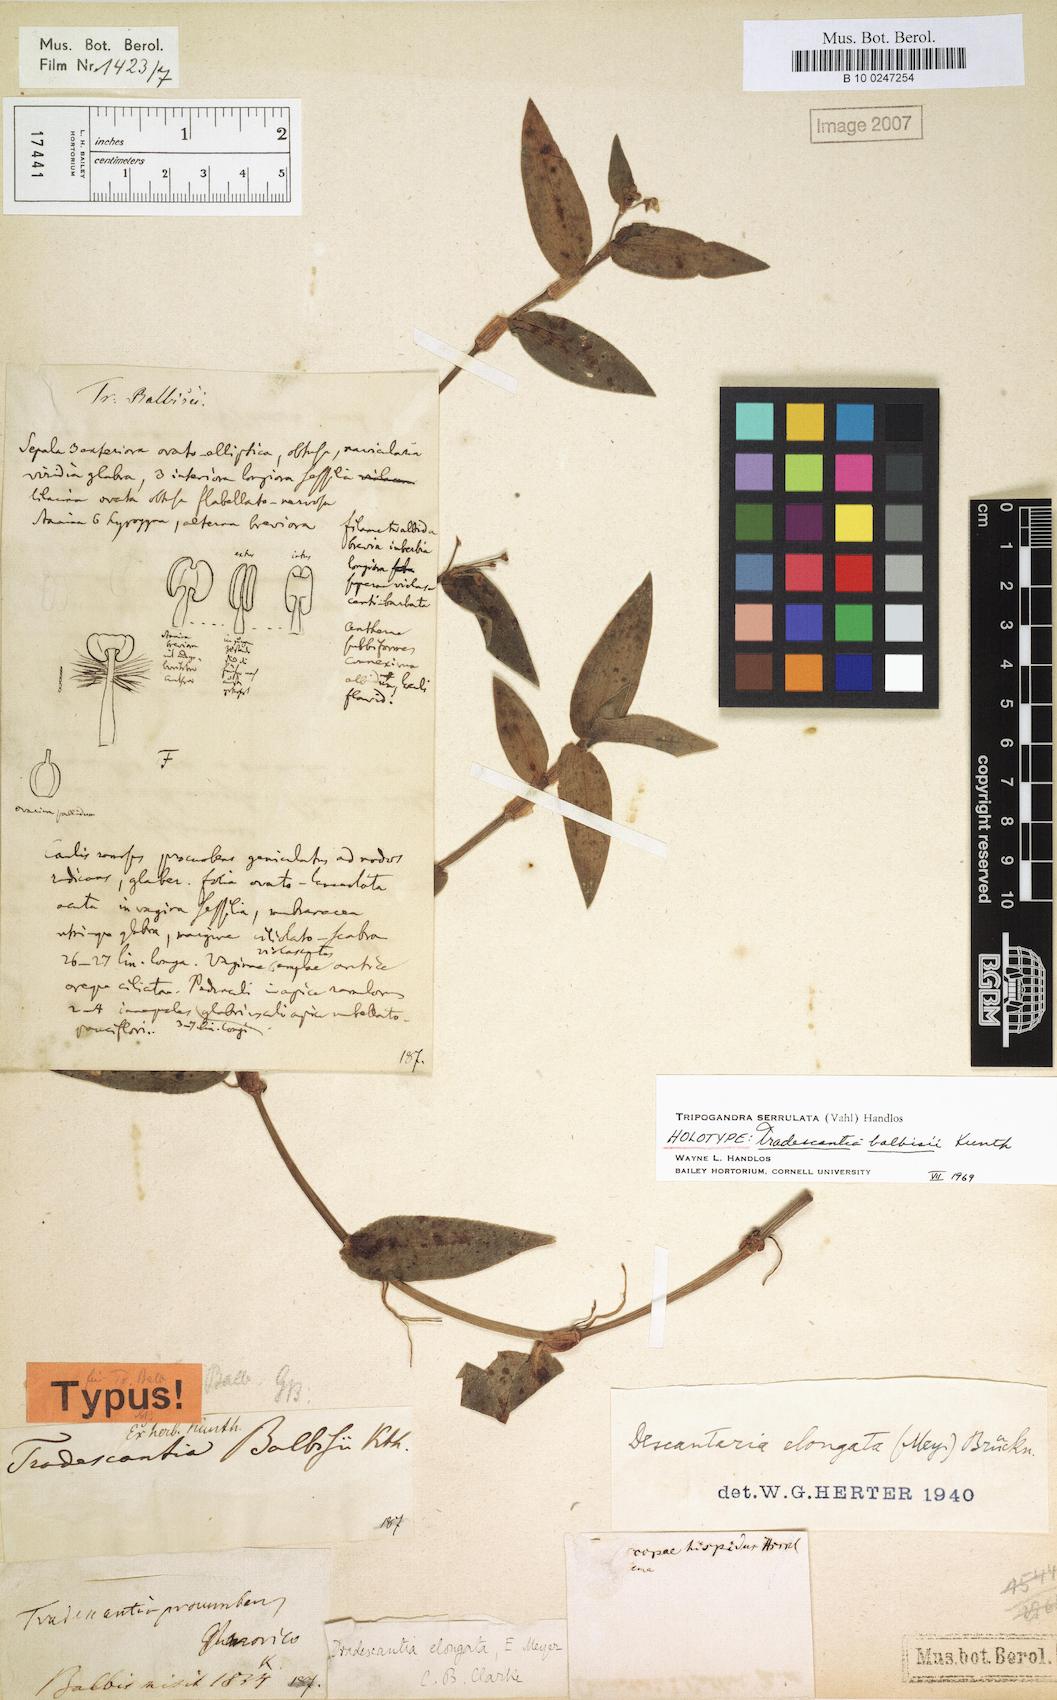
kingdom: Plantae
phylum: Tracheophyta
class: Liliopsida
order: Commelinales
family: Commelinaceae
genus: Callisia
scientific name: Callisia serrulata
